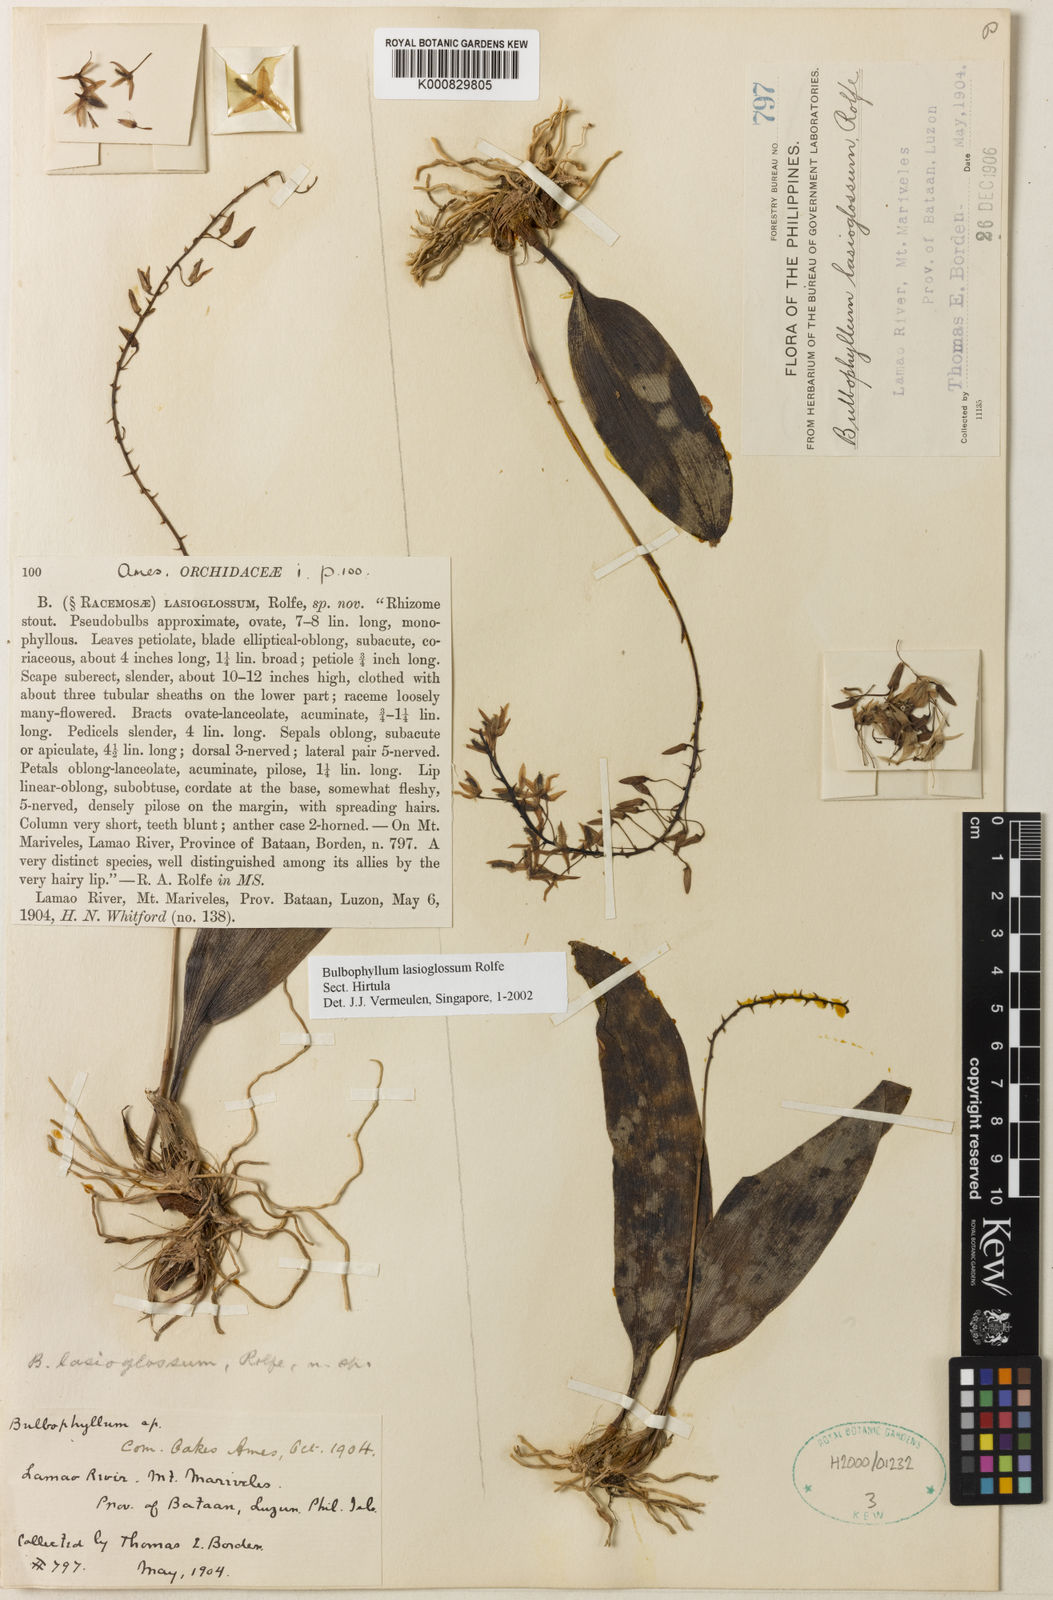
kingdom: Plantae
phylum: Tracheophyta
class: Liliopsida
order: Asparagales
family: Orchidaceae
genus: Bulbophyllum
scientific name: Bulbophyllum lasioglossum
